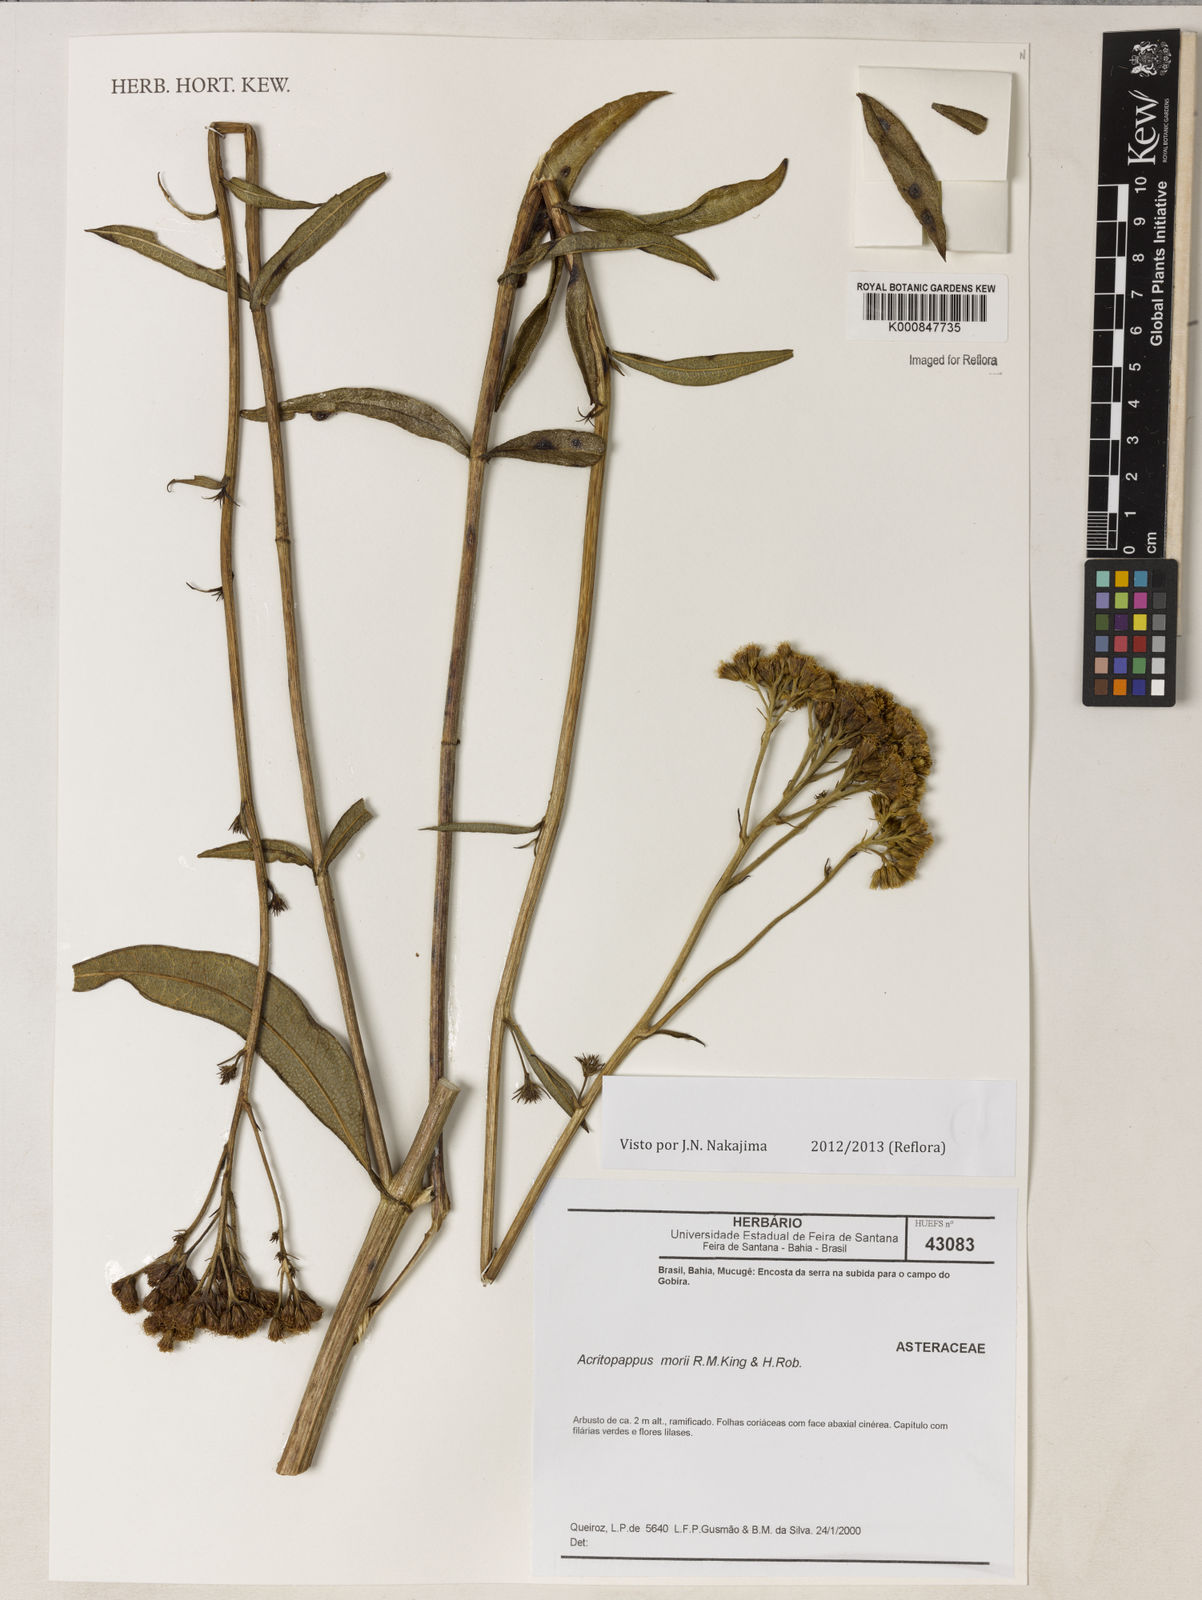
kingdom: Plantae
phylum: Tracheophyta
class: Magnoliopsida
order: Asterales
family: Asteraceae
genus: Acritopappus
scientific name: Acritopappus morii
